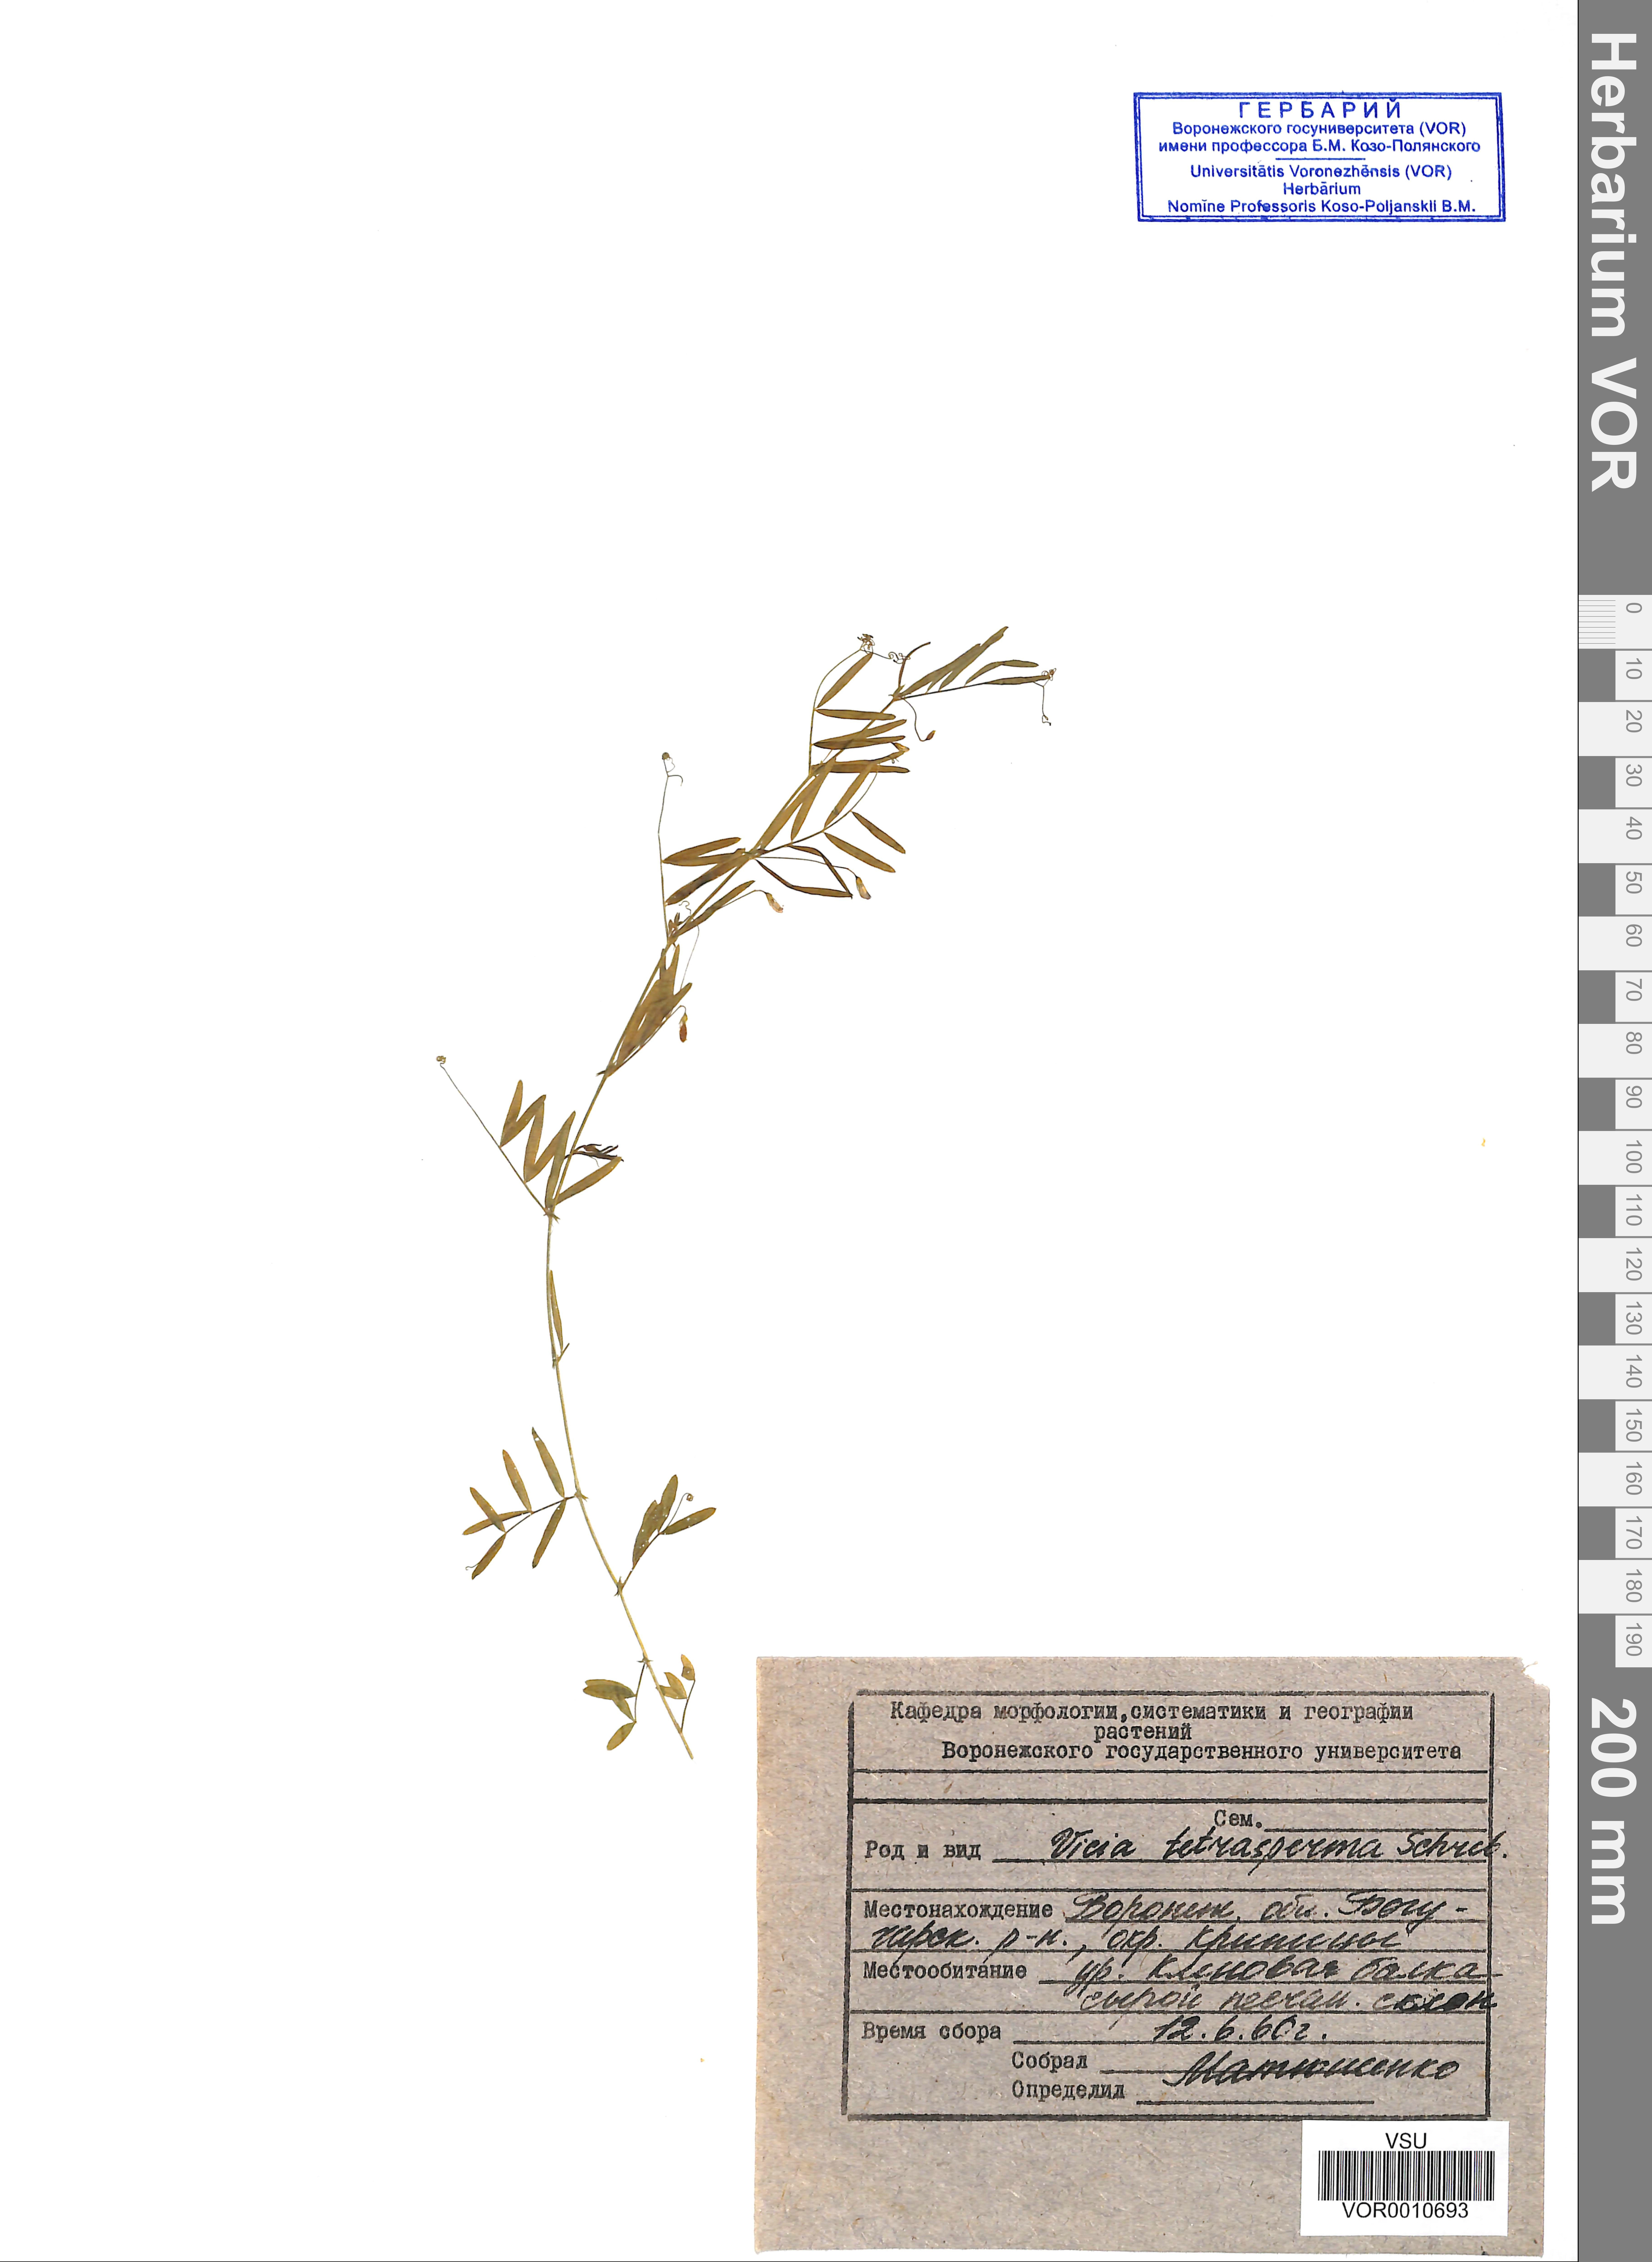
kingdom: Plantae
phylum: Tracheophyta
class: Magnoliopsida
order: Fabales
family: Fabaceae
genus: Vicia
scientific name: Vicia tetrasperma
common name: Smooth tare
